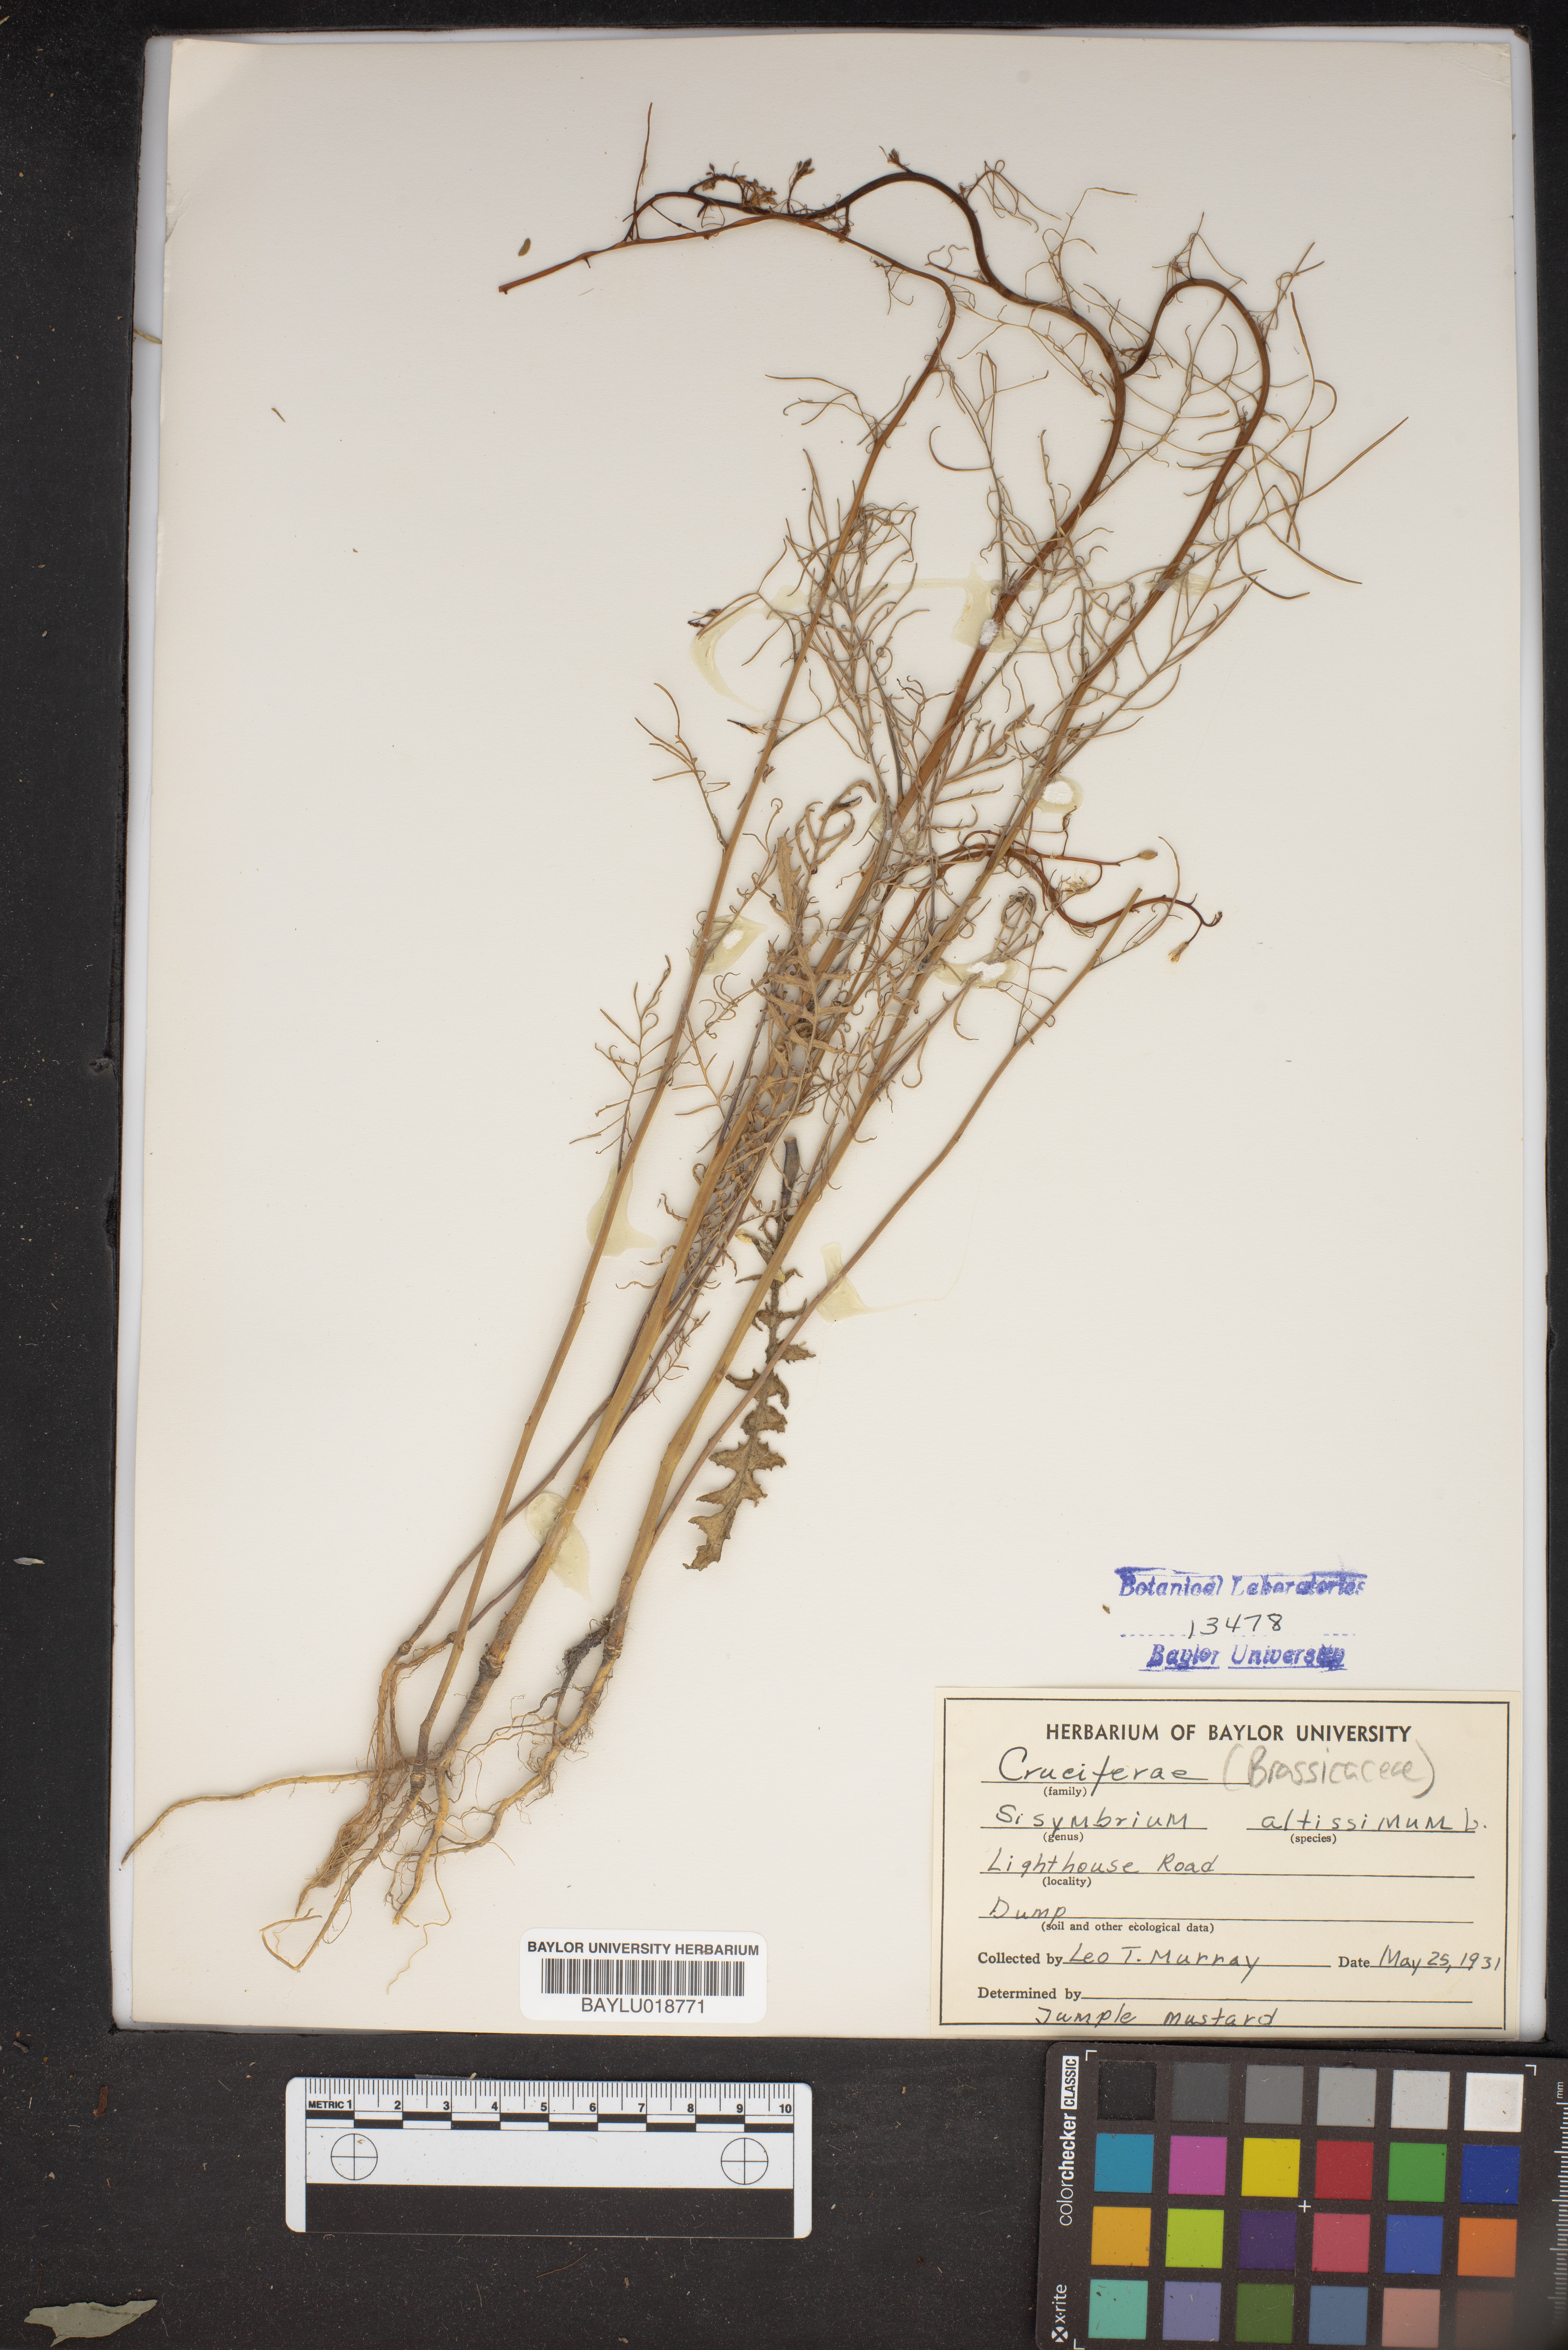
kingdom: Plantae
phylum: Tracheophyta
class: Magnoliopsida
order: Brassicales
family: Brassicaceae
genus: Sisymbrium
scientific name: Sisymbrium altissimum
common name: Tall rocket
